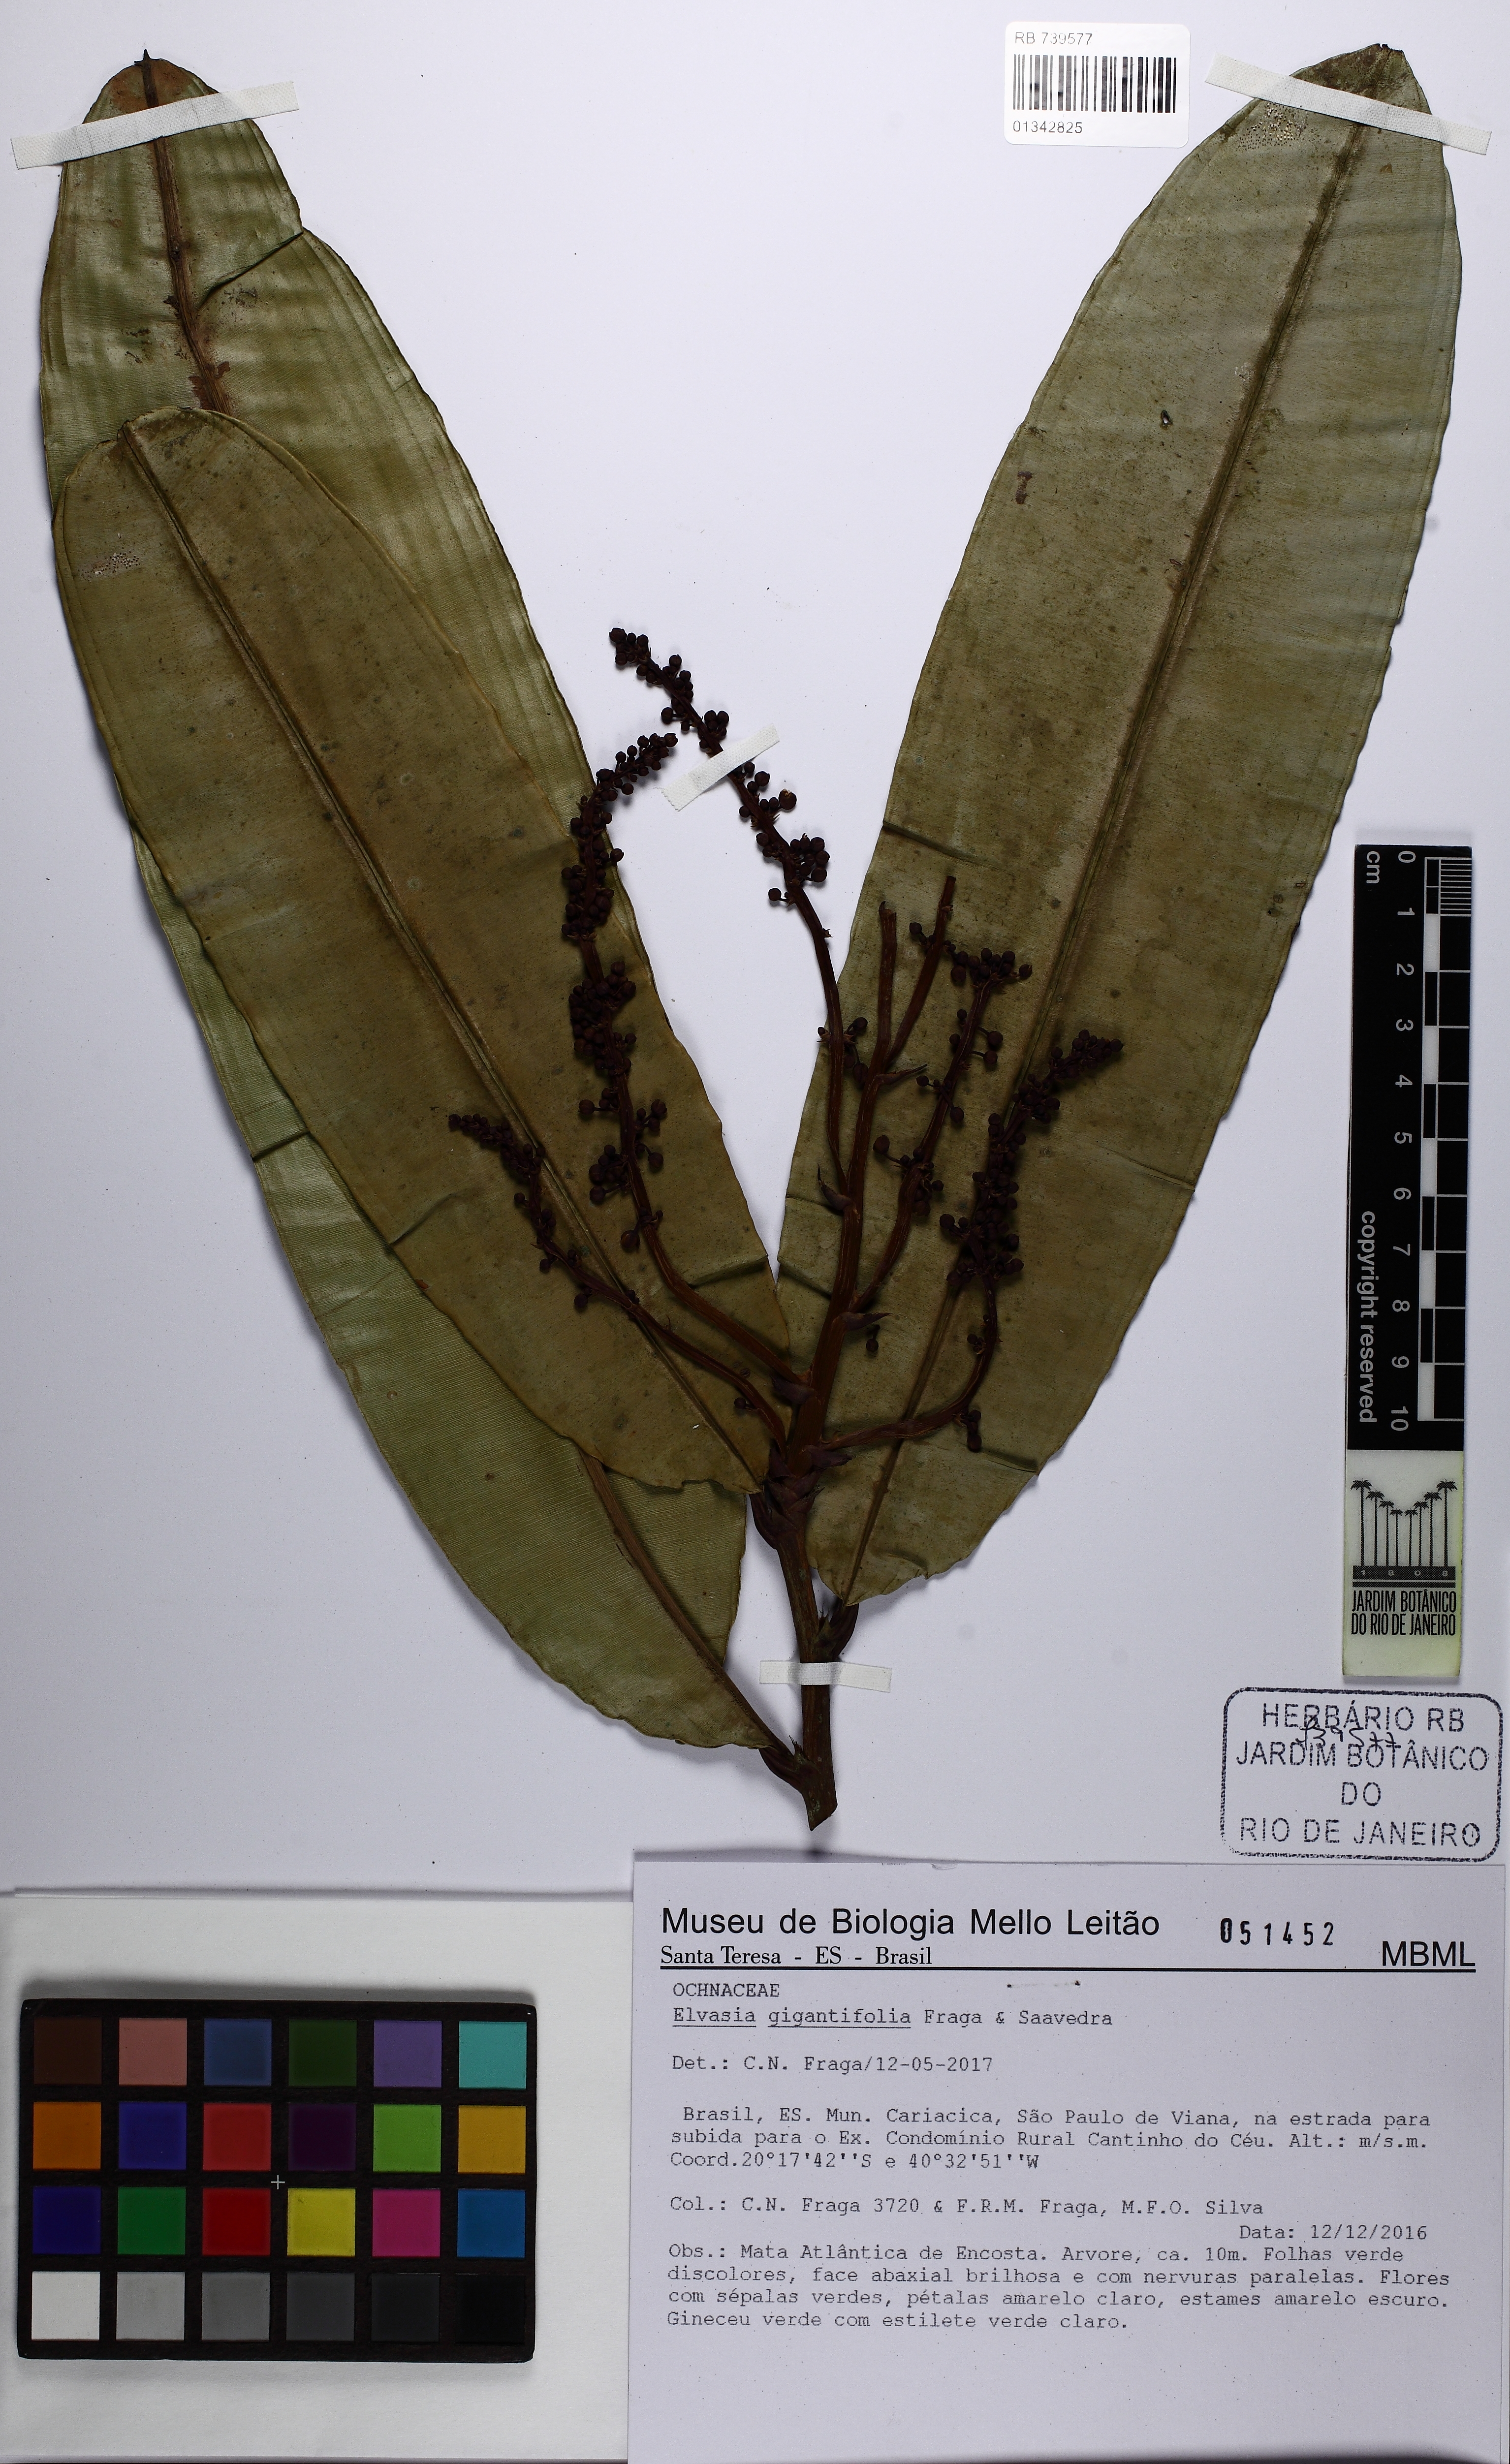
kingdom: Plantae
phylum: Tracheophyta
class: Magnoliopsida
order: Malpighiales
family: Ochnaceae
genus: Elvasia
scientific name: Elvasia gigantifolia
